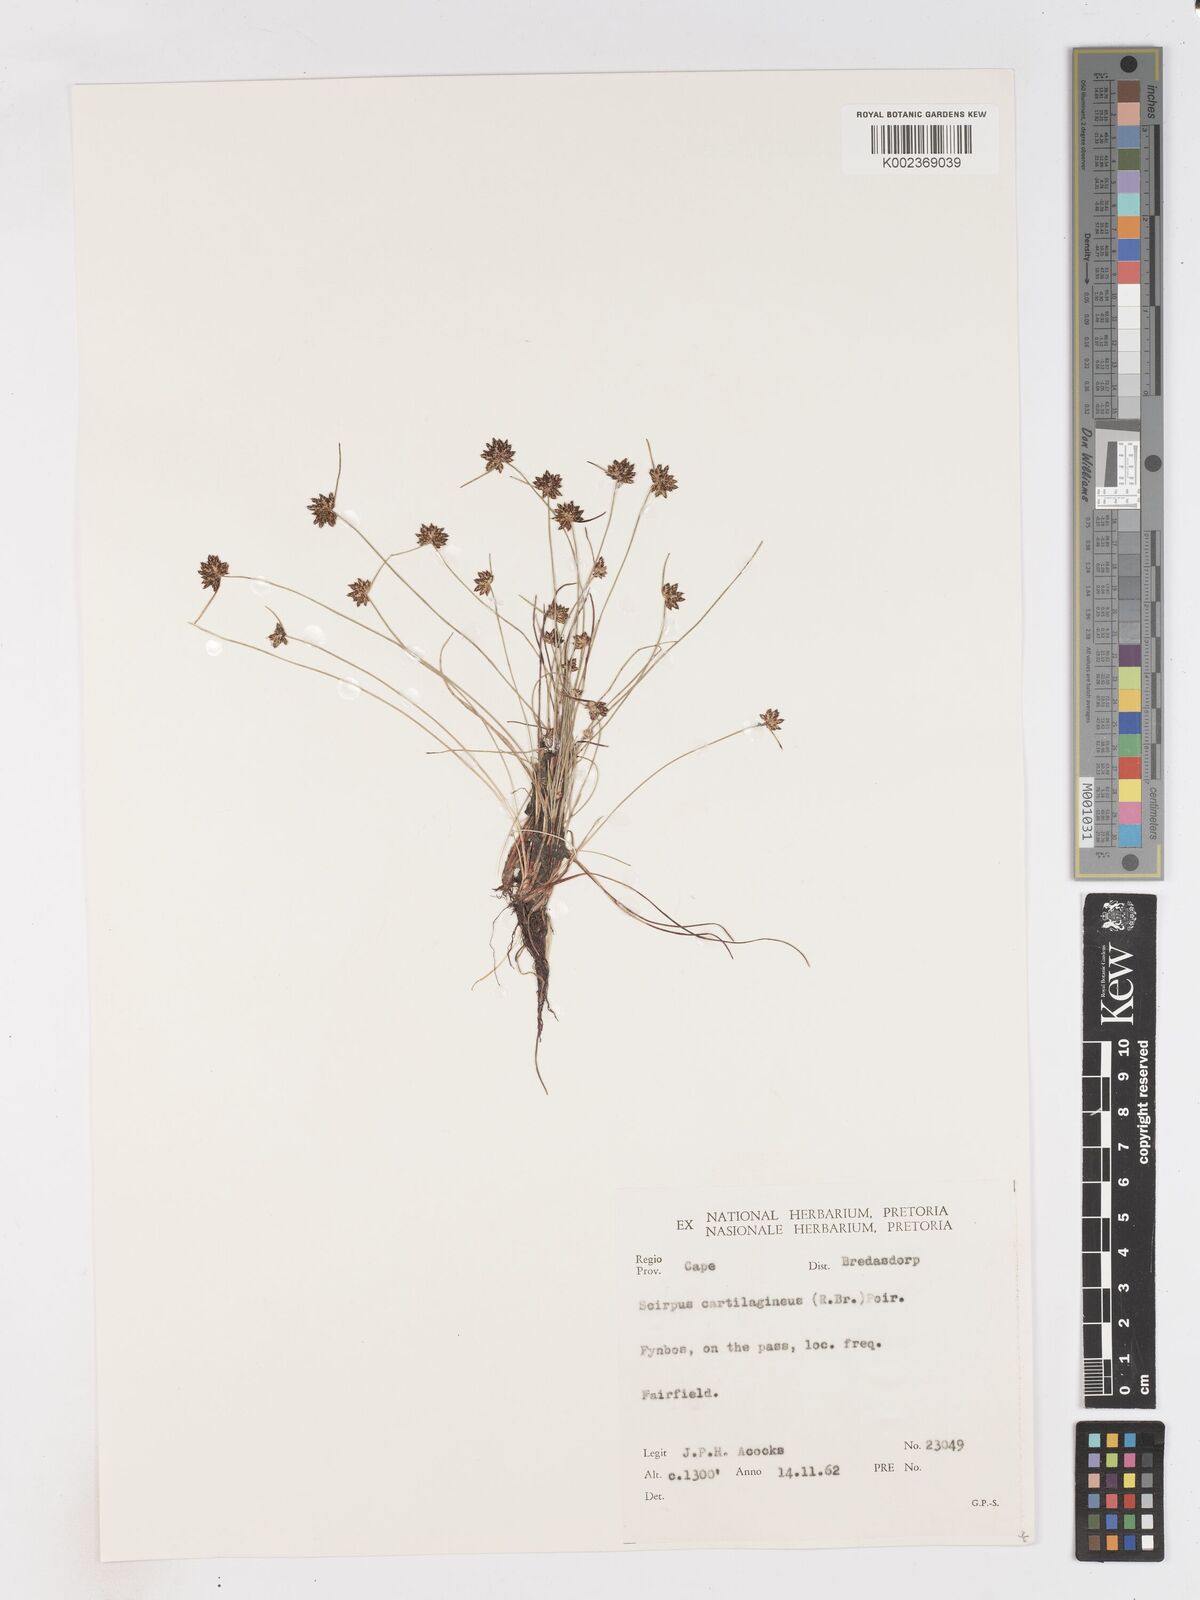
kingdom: Plantae
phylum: Tracheophyta
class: Liliopsida
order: Poales
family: Cyperaceae
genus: Isolepis
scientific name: Isolepis diabolica
